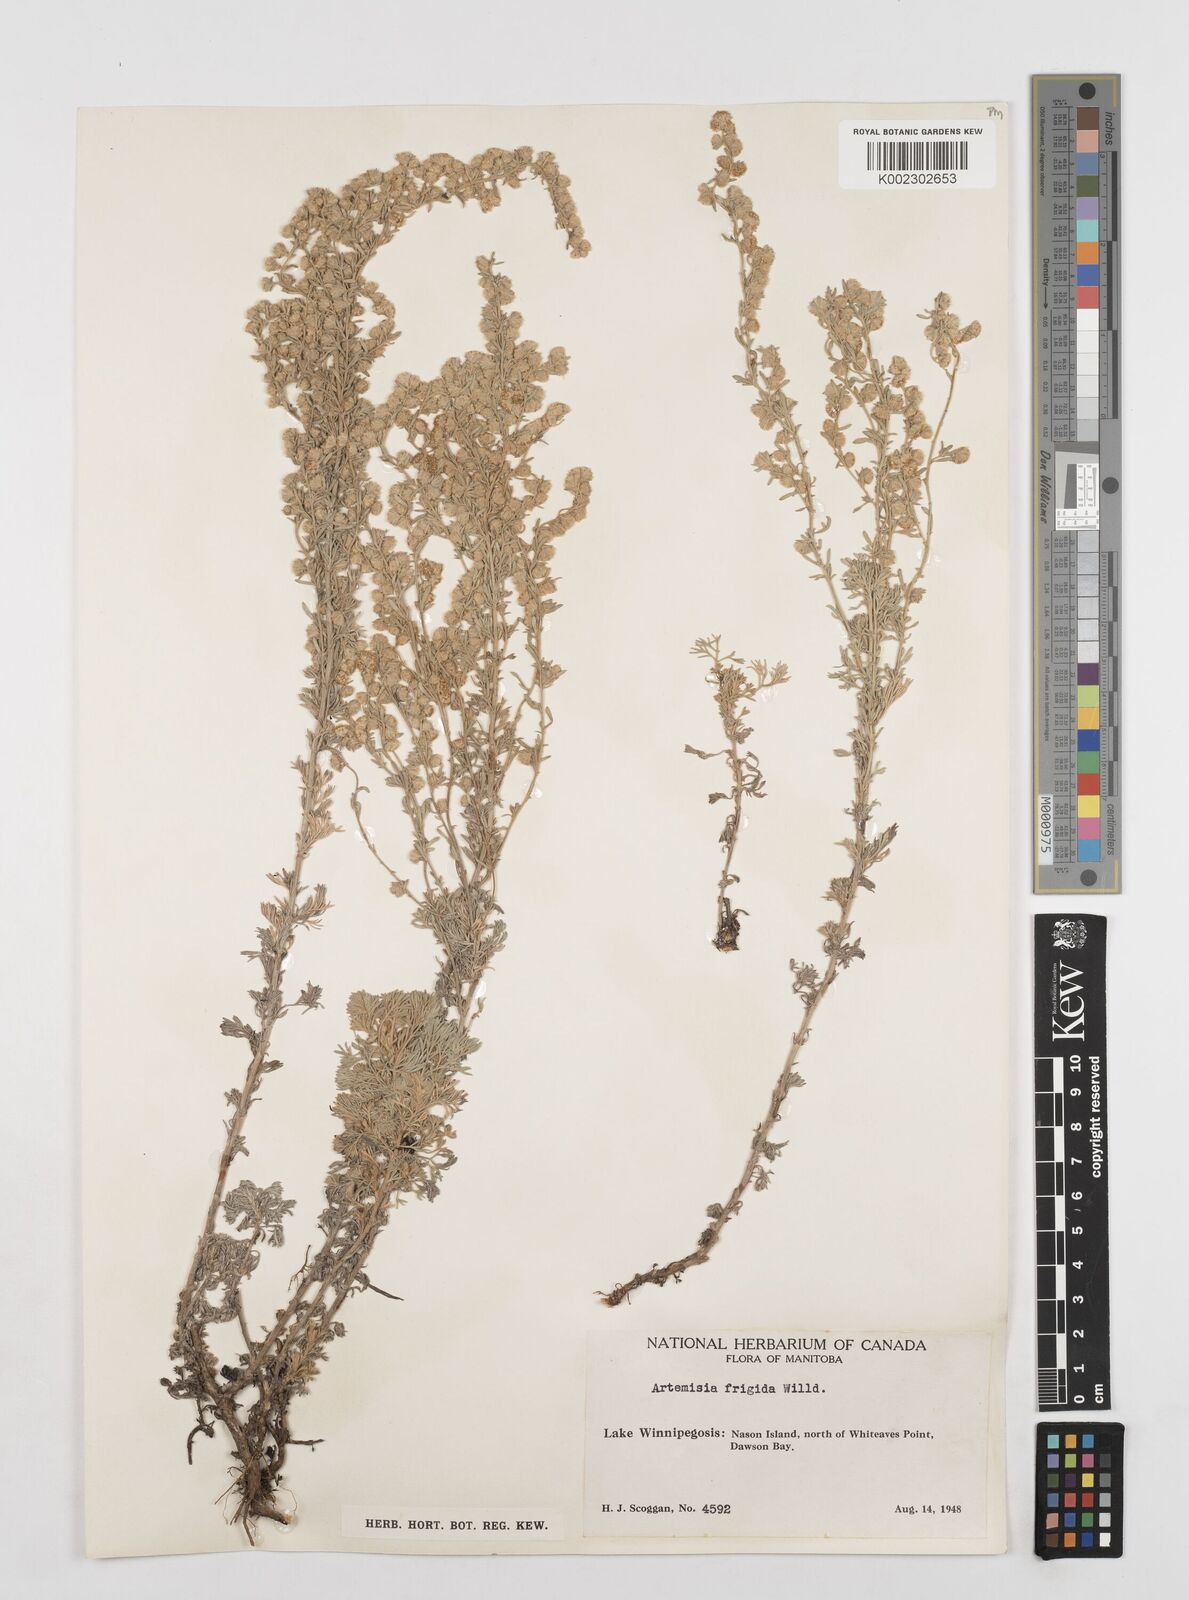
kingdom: Plantae
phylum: Tracheophyta
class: Magnoliopsida
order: Asterales
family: Asteraceae
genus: Artemisia
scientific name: Artemisia frigida
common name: Prairie sagewort
